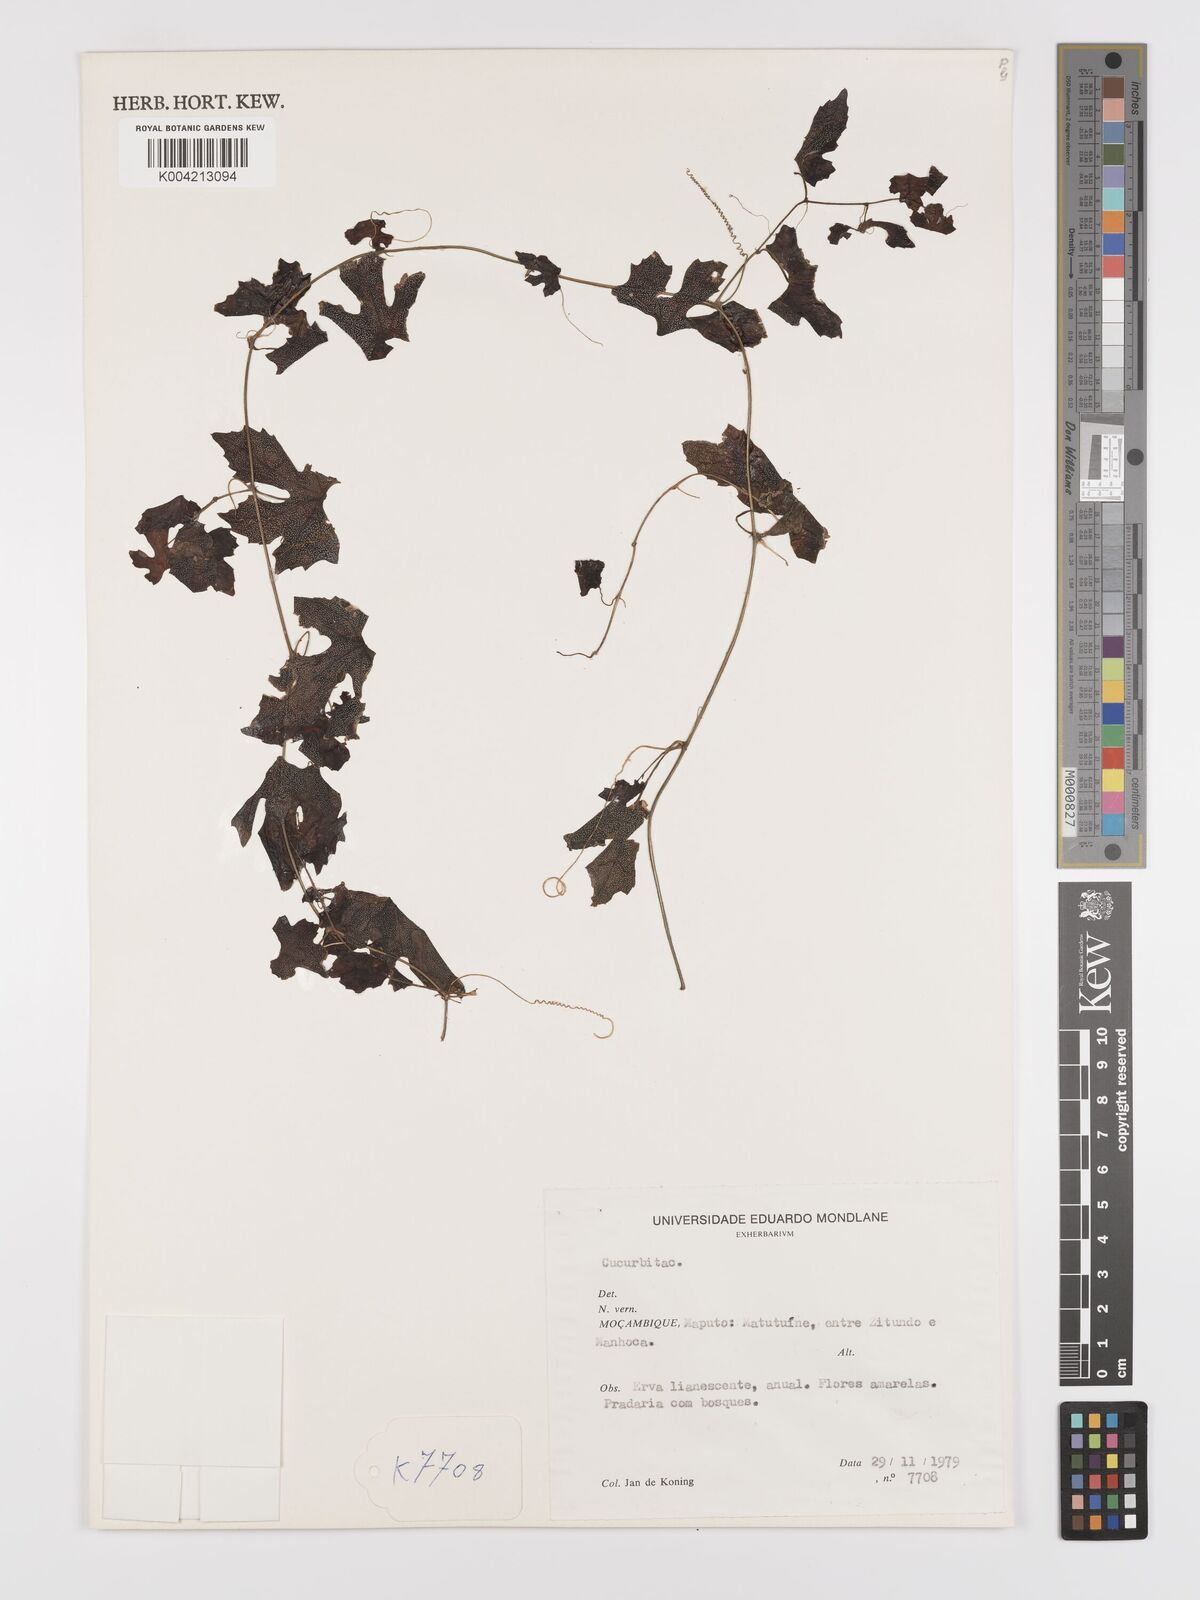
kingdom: Plantae
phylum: Tracheophyta
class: Magnoliopsida
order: Cucurbitales
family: Cucurbitaceae
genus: Blastania
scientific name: Blastania cerasiformis
